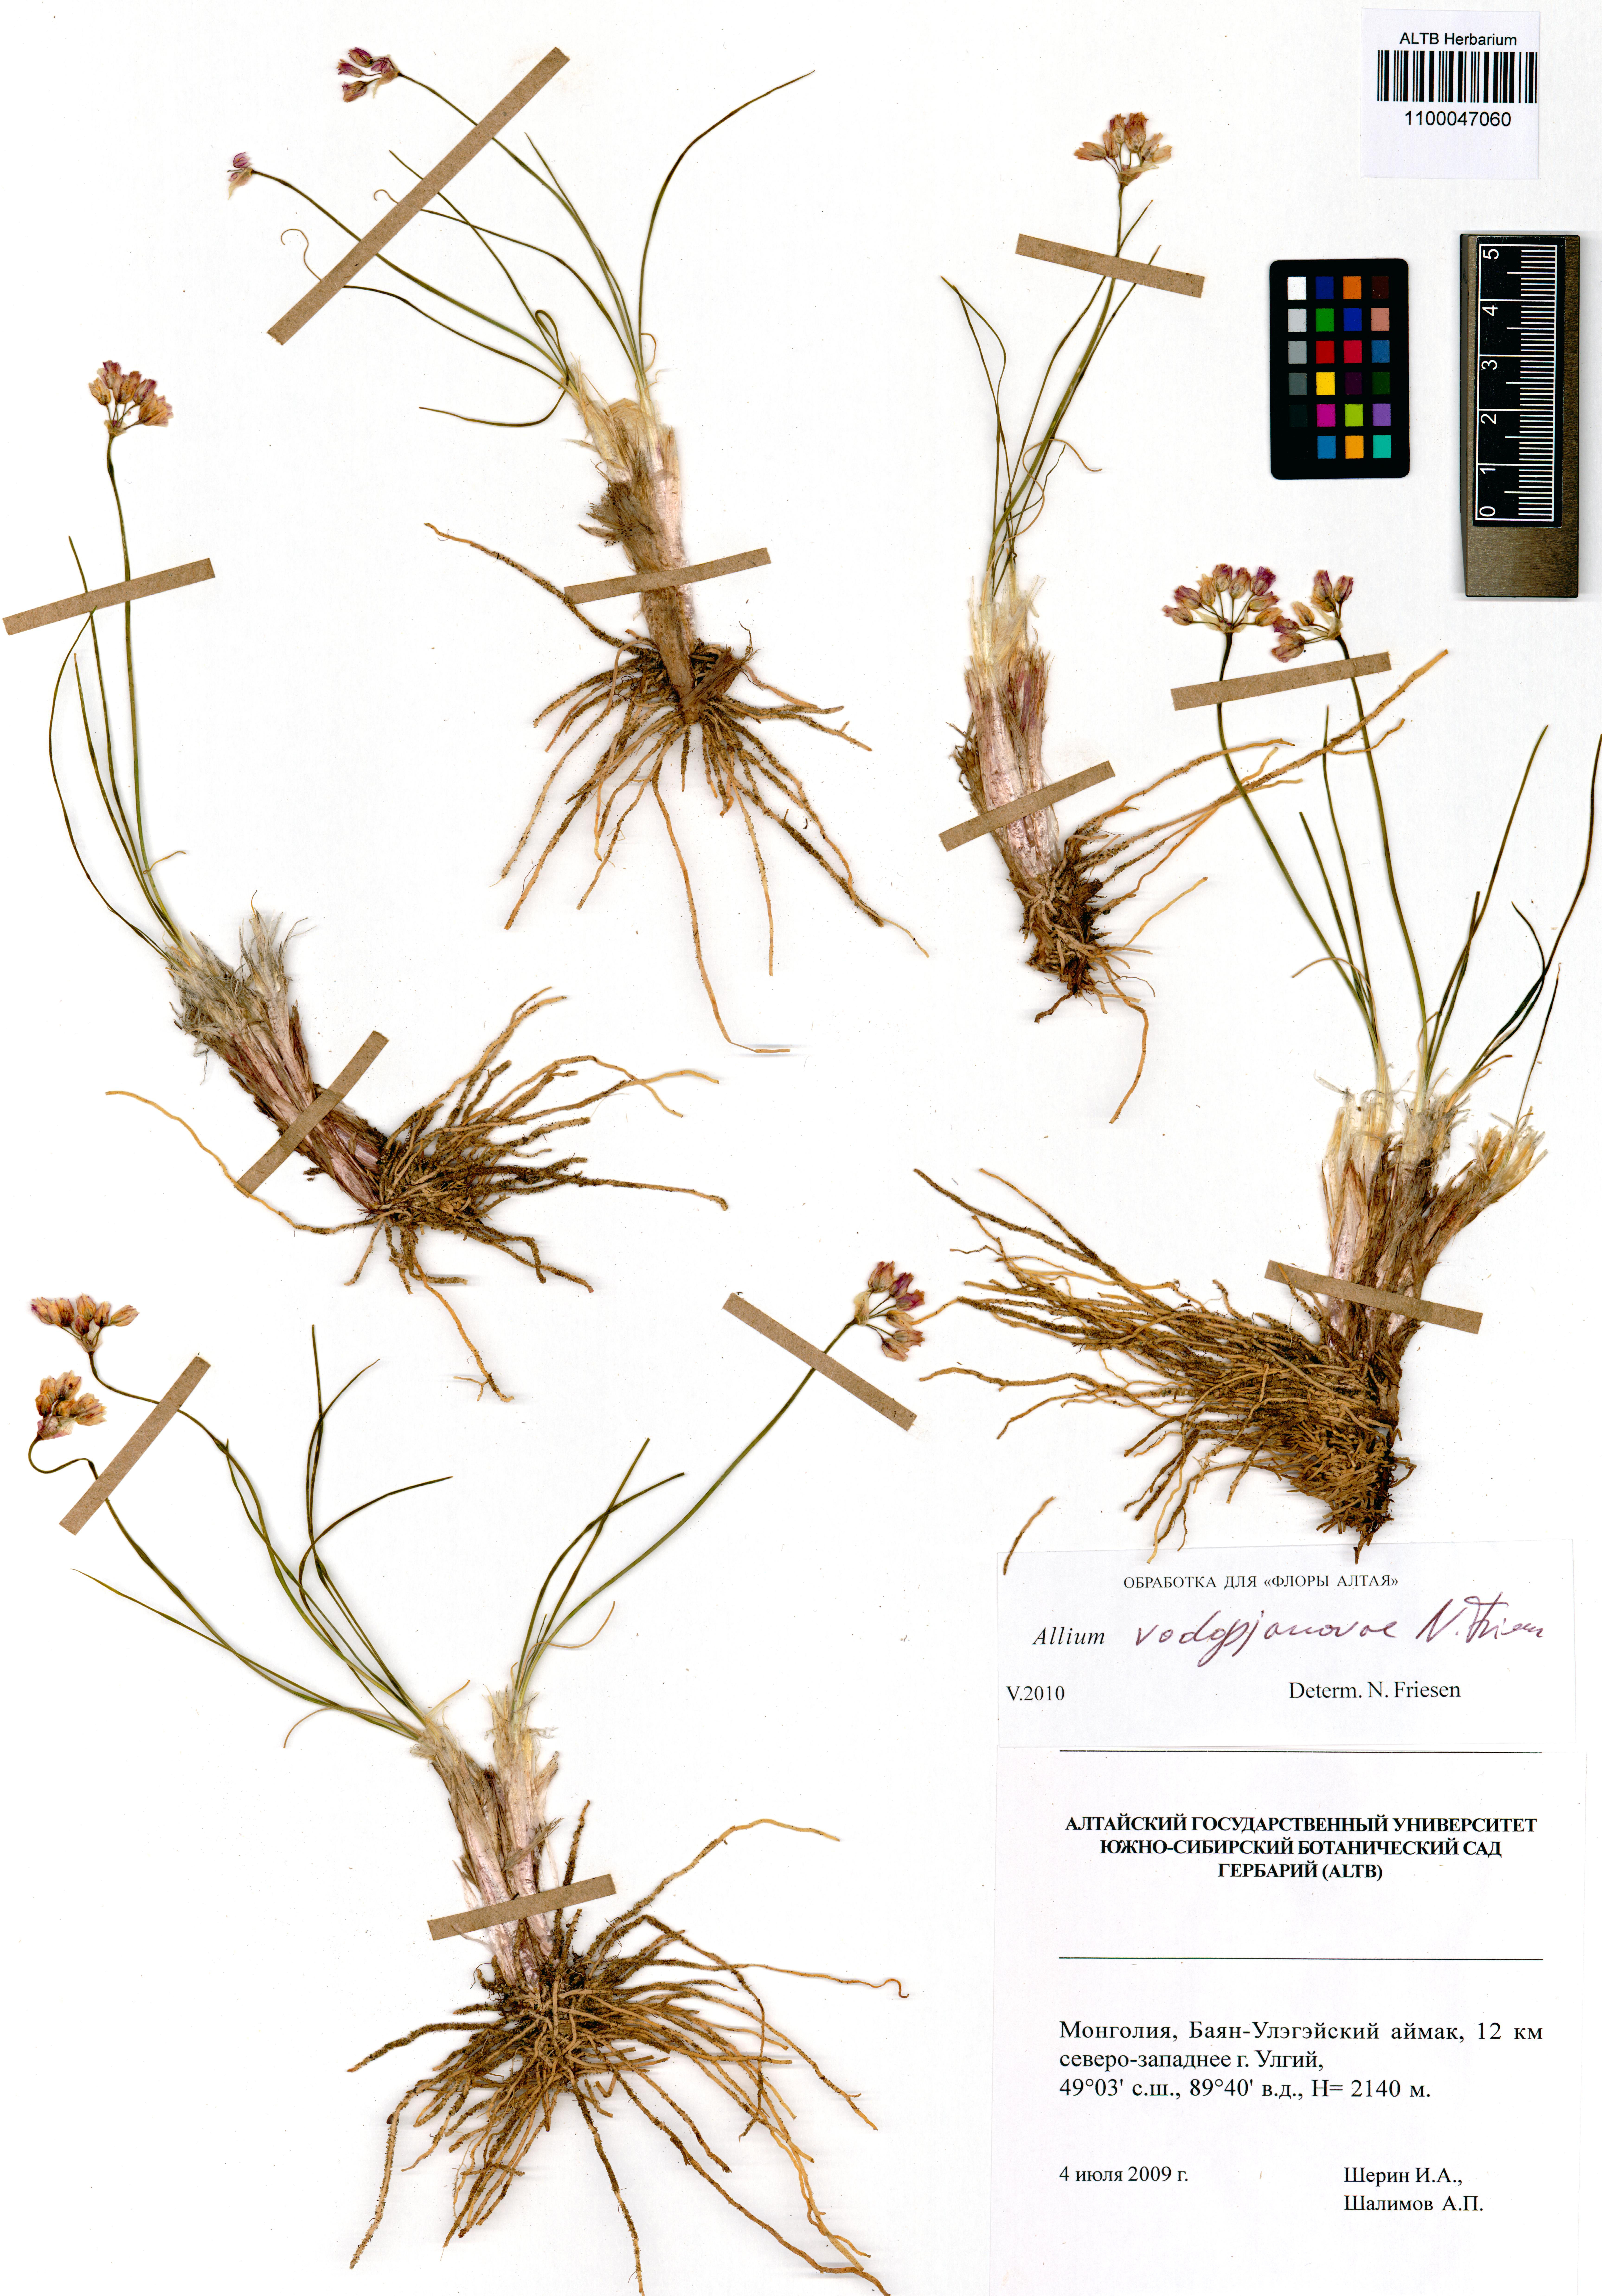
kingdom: Plantae
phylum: Tracheophyta
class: Liliopsida
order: Asparagales
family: Amaryllidaceae
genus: Allium
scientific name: Allium vodopjanovae
